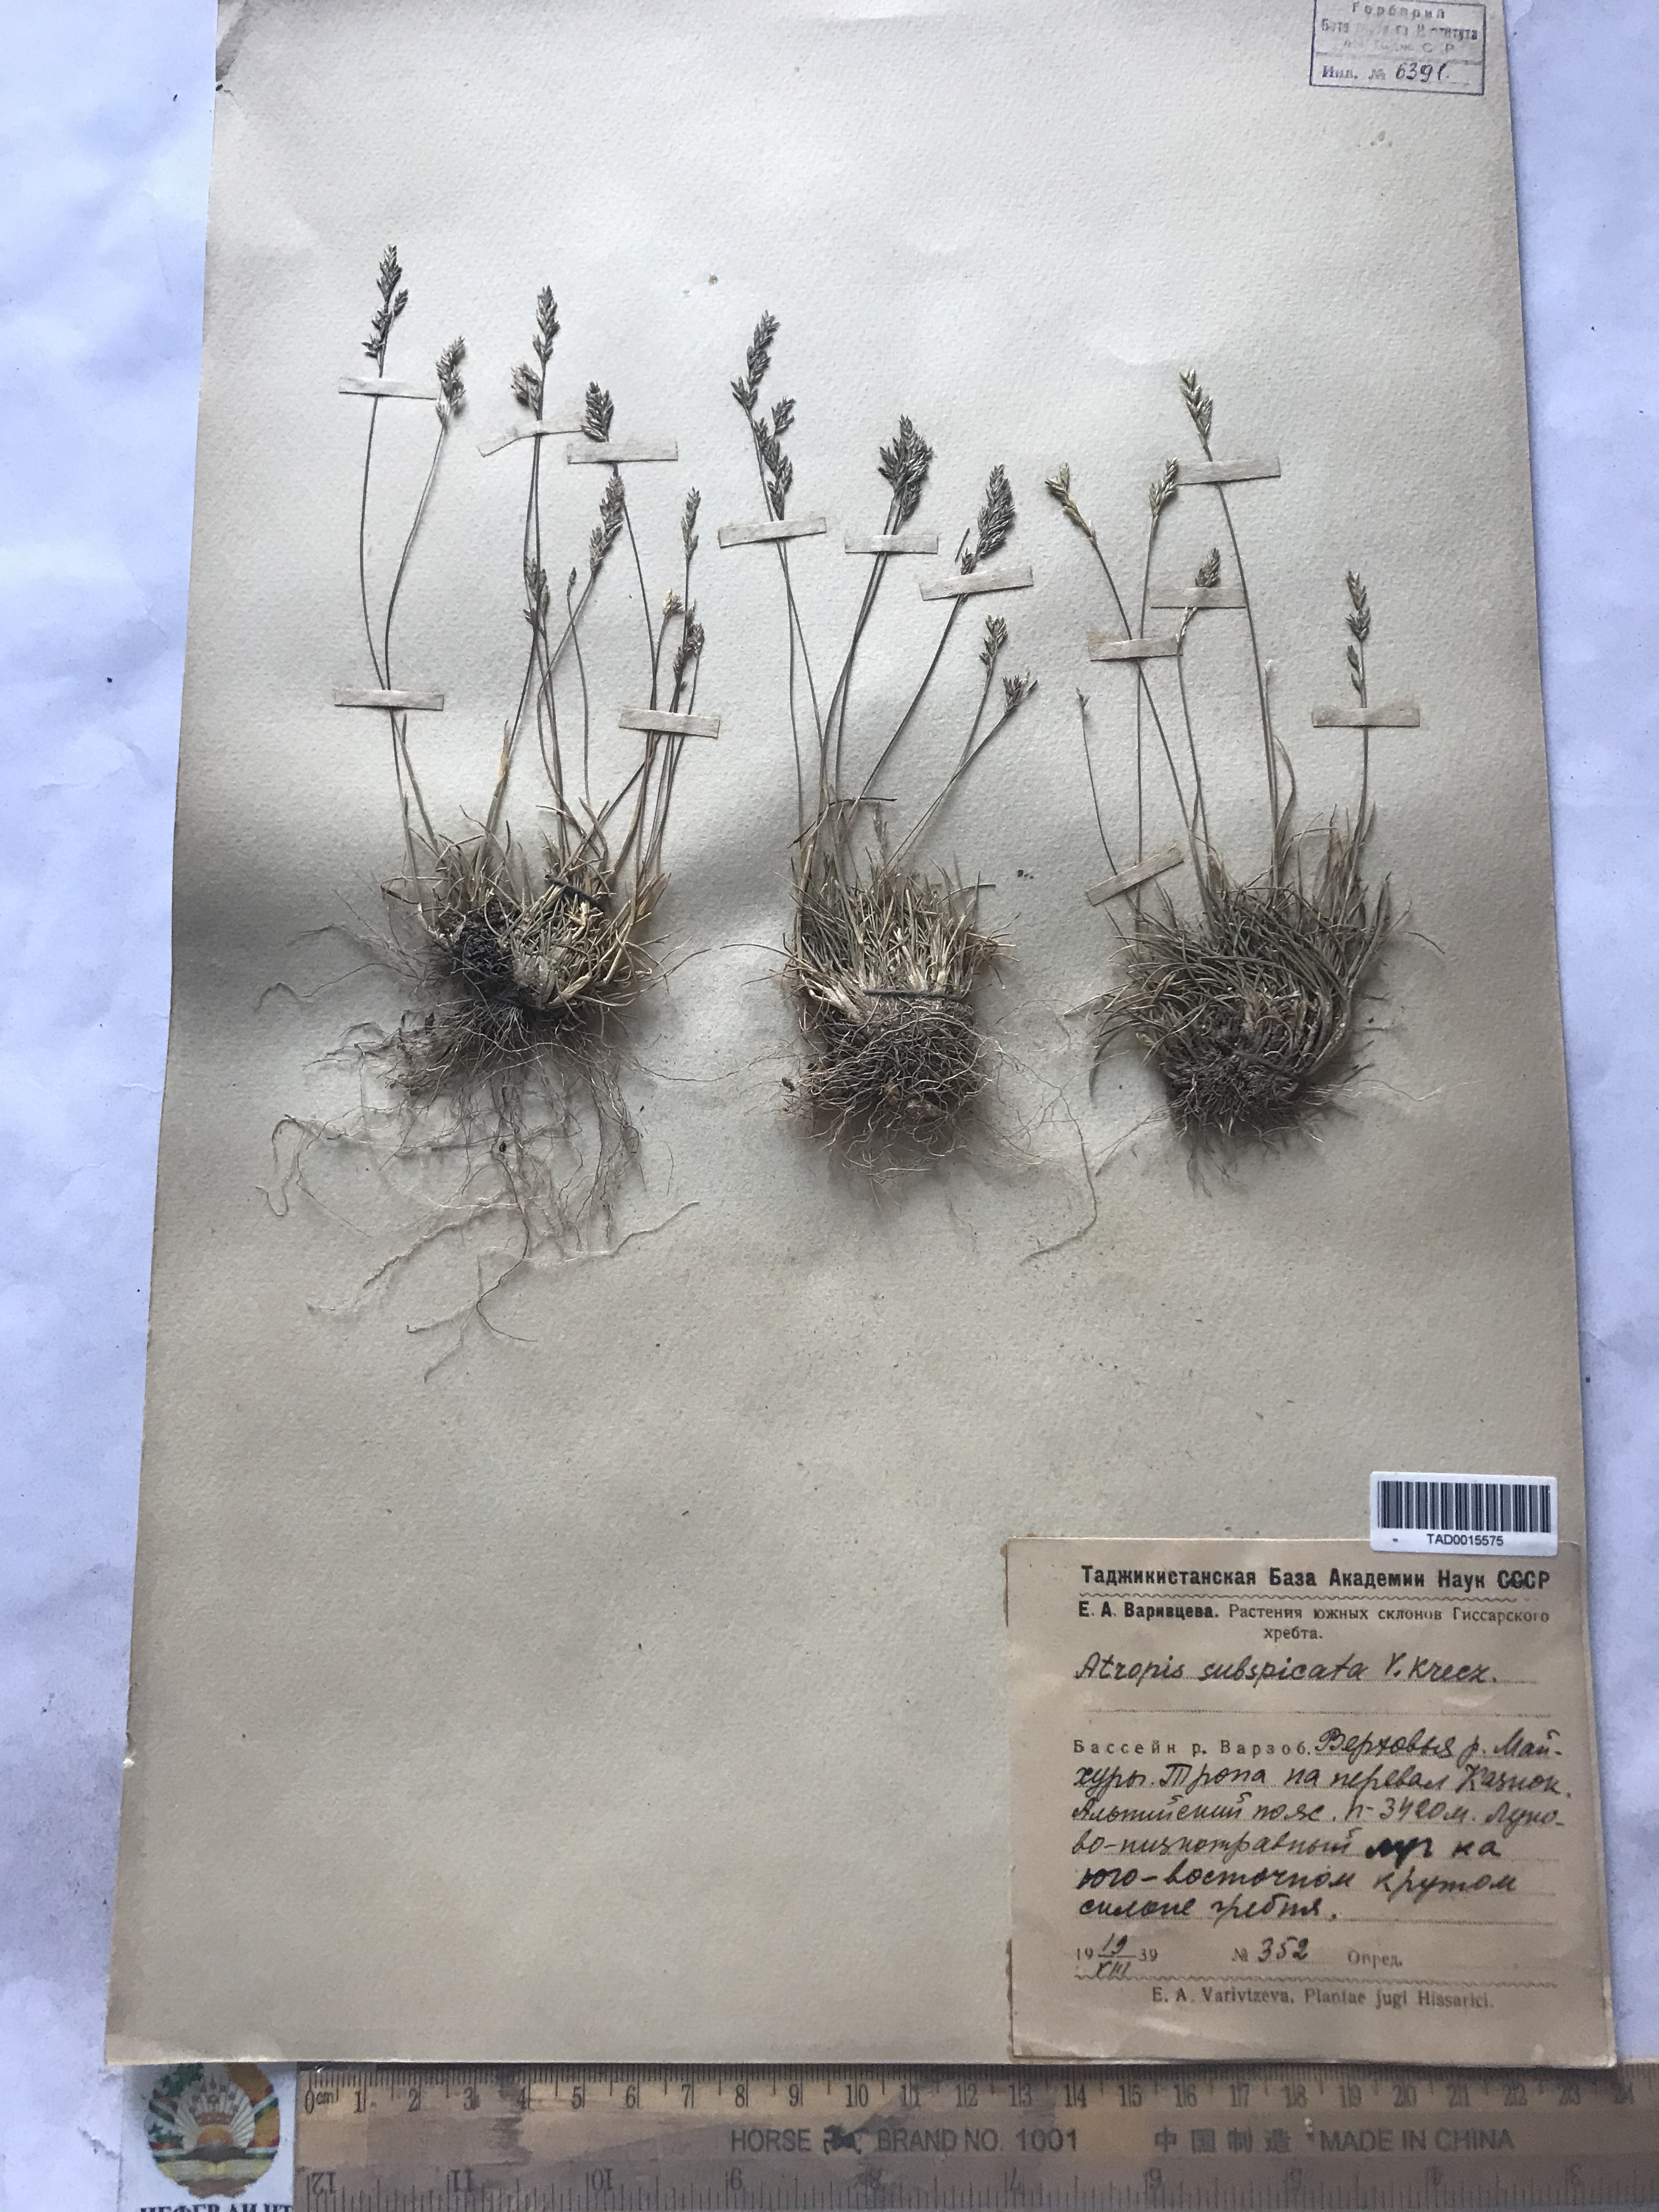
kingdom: Plantae
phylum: Tracheophyta
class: Liliopsida
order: Poales
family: Poaceae
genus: Puccinellia
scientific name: Puccinellia subspicata
